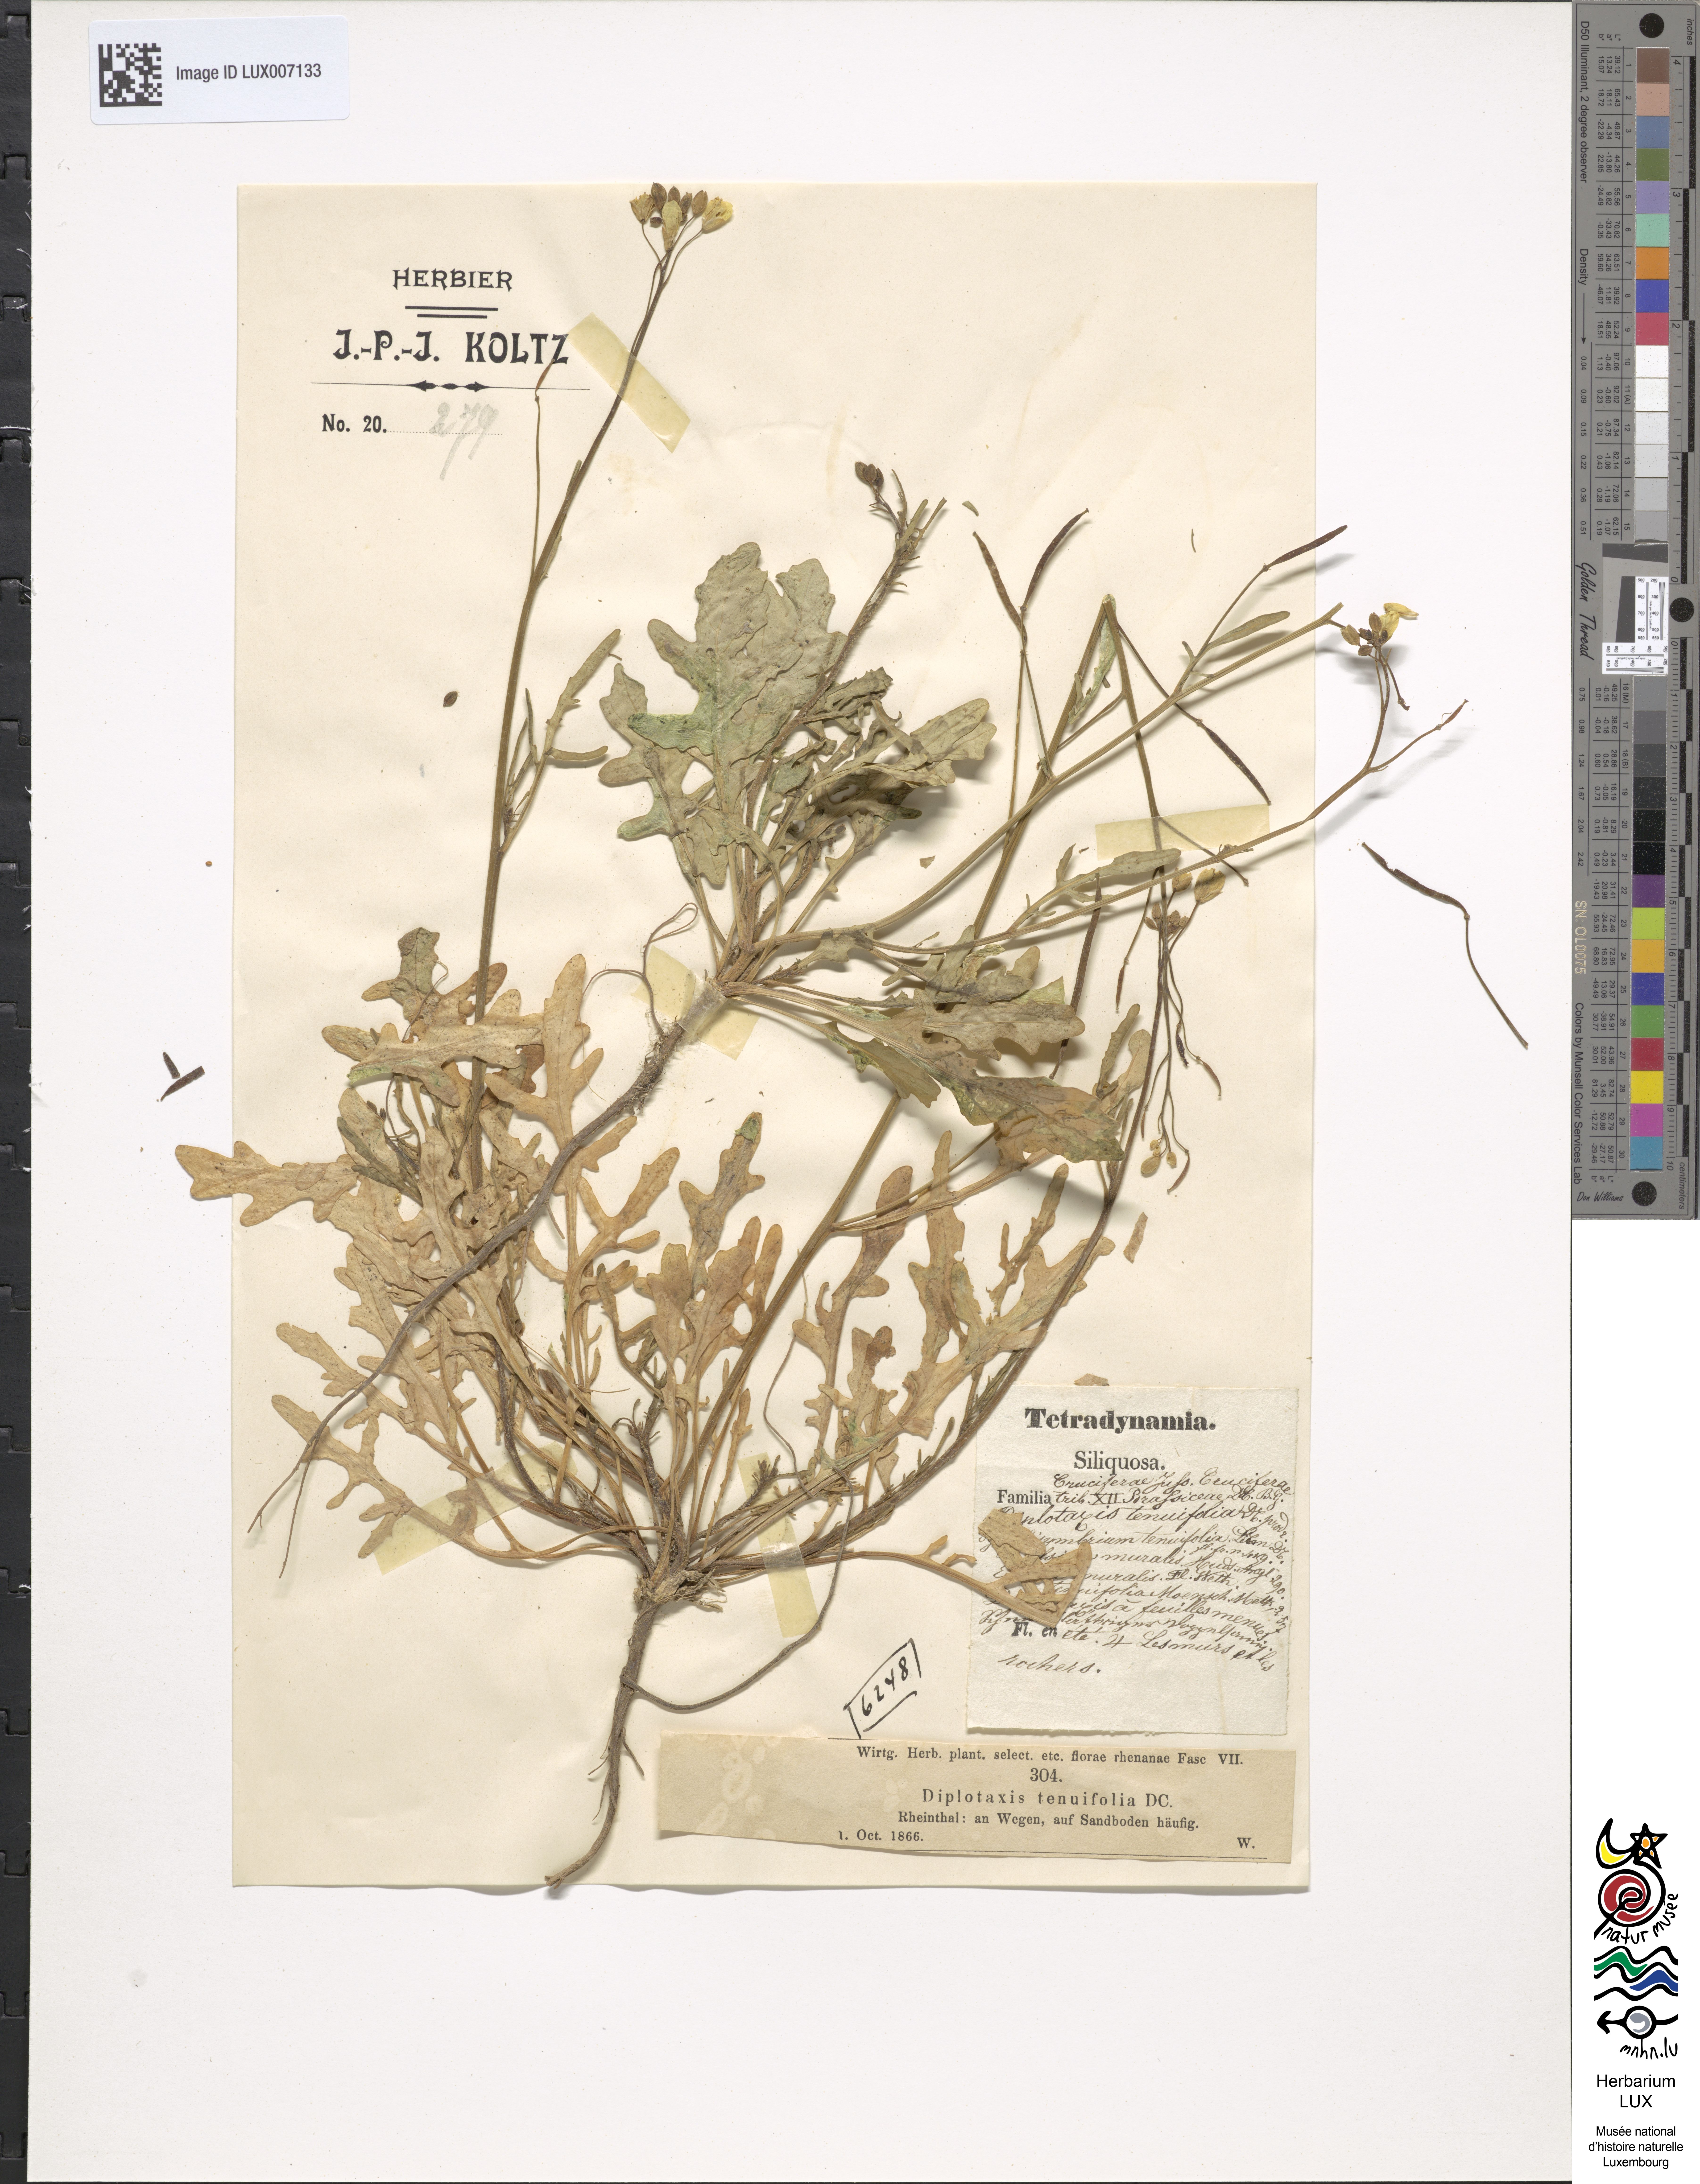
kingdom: Plantae
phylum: Tracheophyta
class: Magnoliopsida
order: Brassicales
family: Brassicaceae
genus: Diplotaxis
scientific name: Diplotaxis tenuifolia
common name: Perennial wall-rocket
